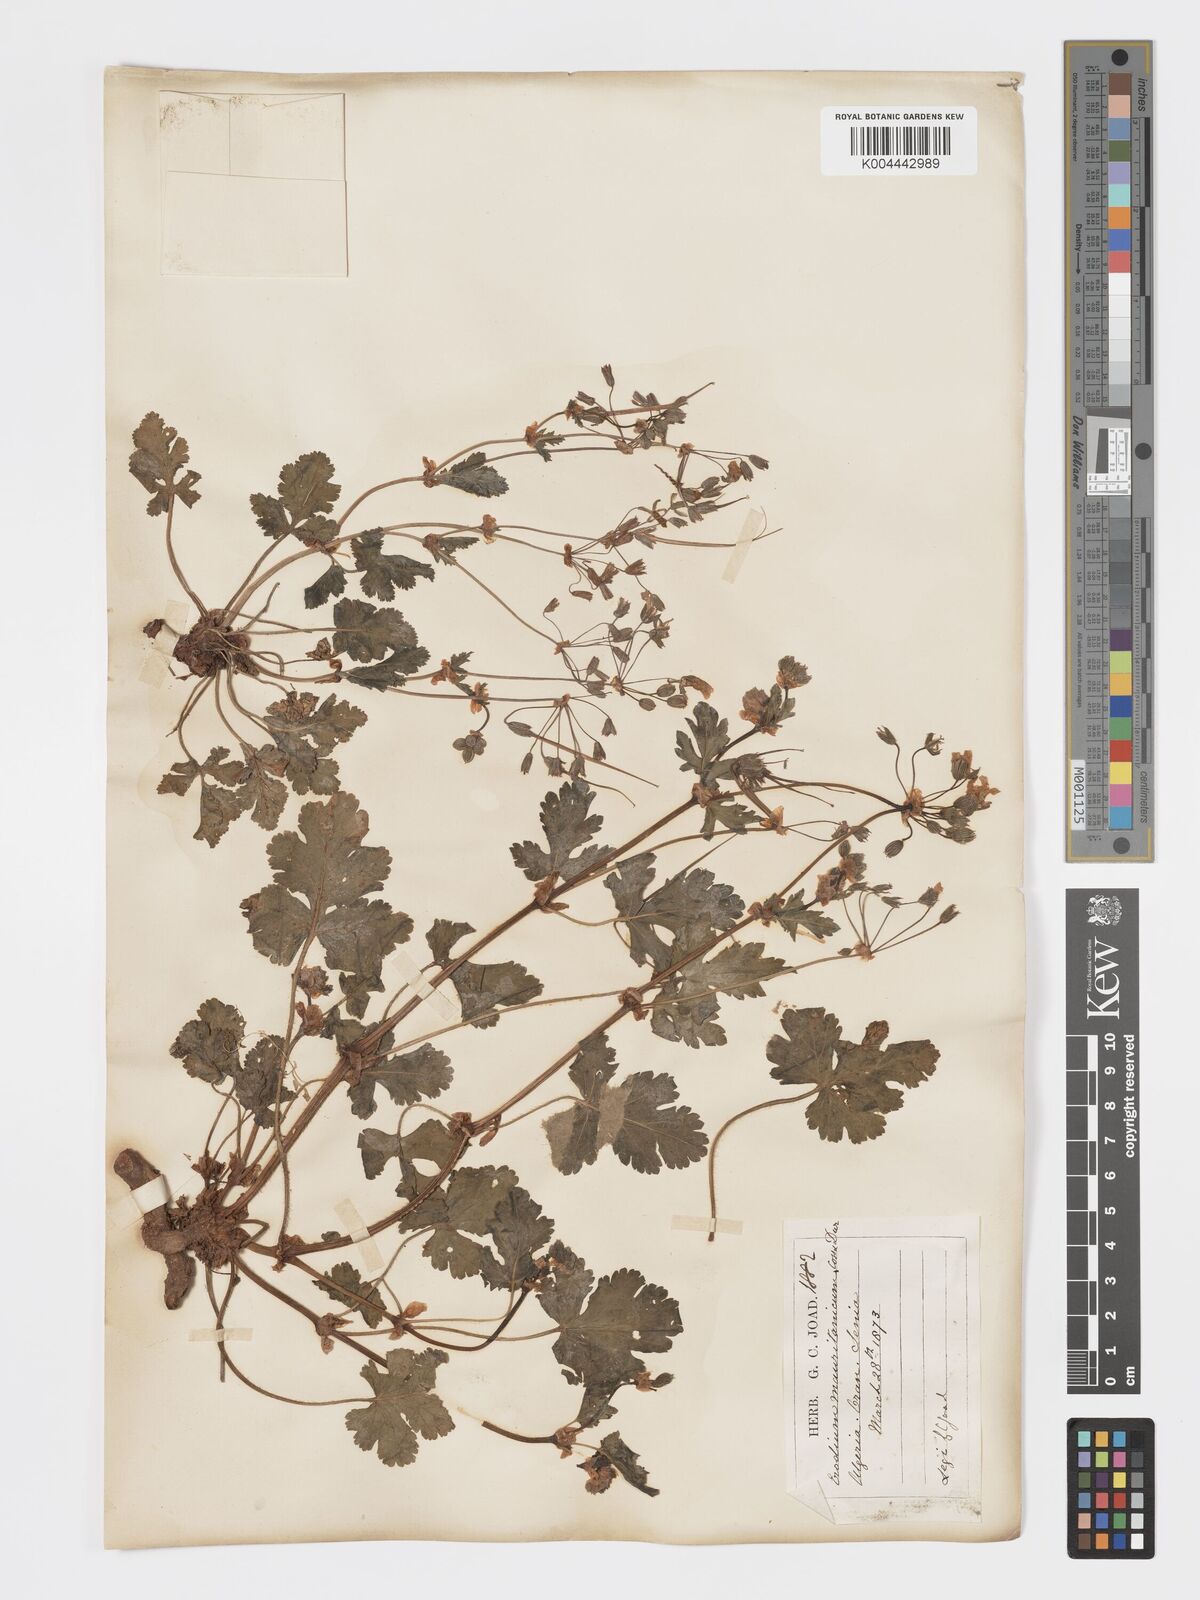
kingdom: Plantae
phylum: Tracheophyta
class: Magnoliopsida
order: Geraniales
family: Geraniaceae
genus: Erodium
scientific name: Erodium munbyanum
